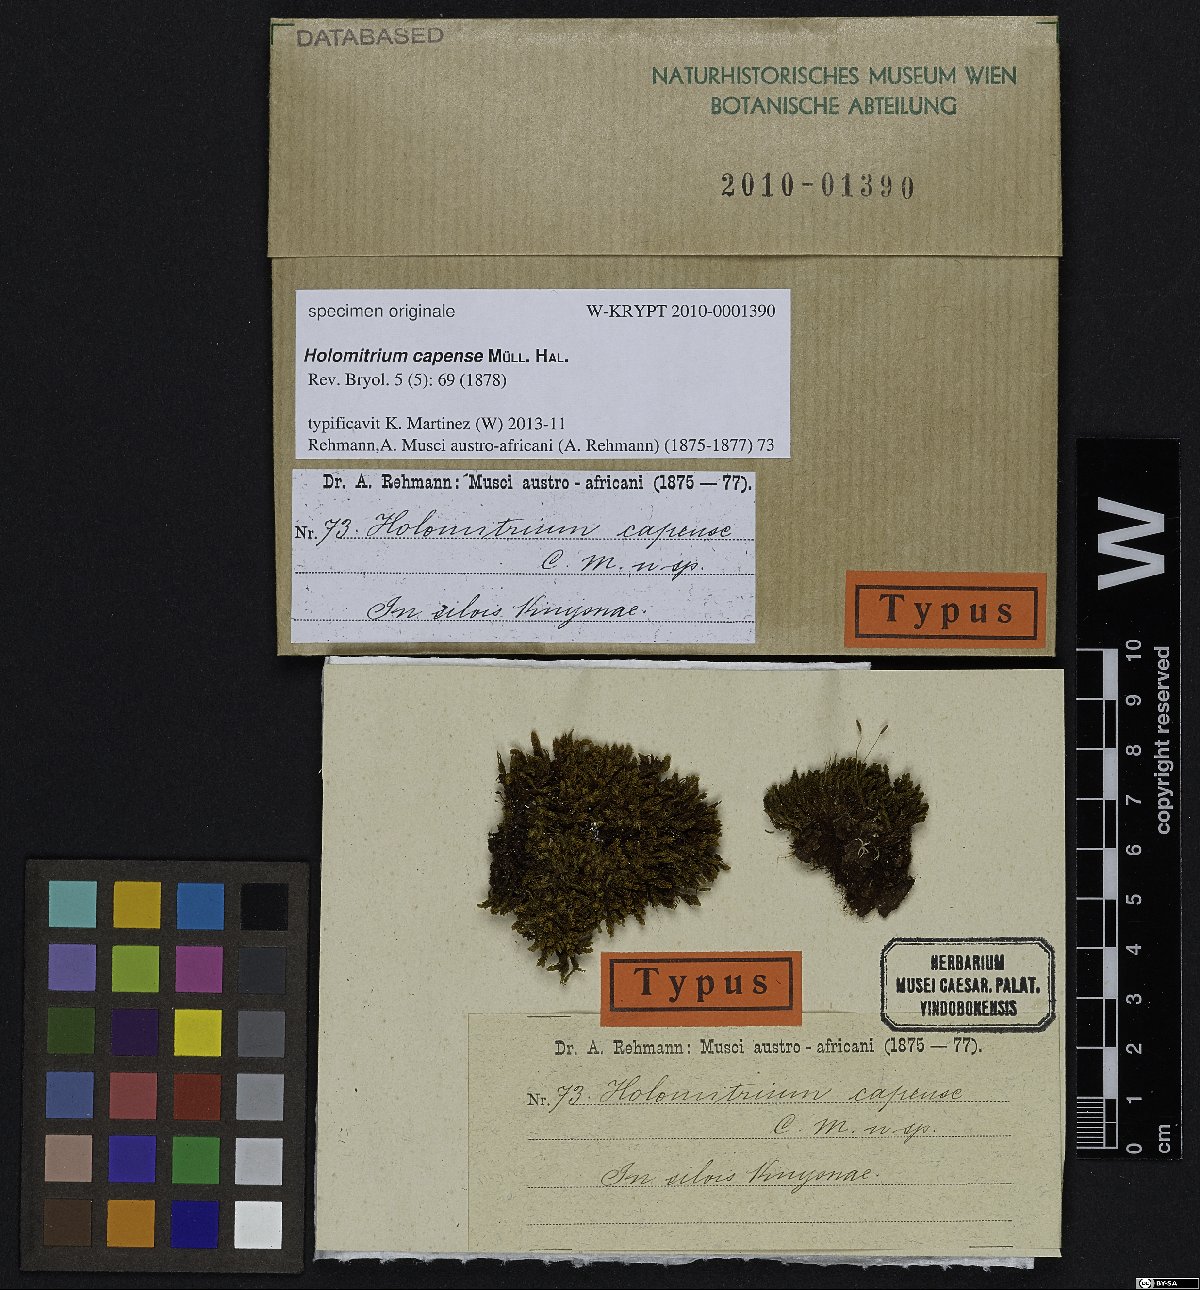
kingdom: Plantae
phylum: Bryophyta
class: Bryopsida
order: Dicranales
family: Dicranaceae
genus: Holomitrium
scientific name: Holomitrium
